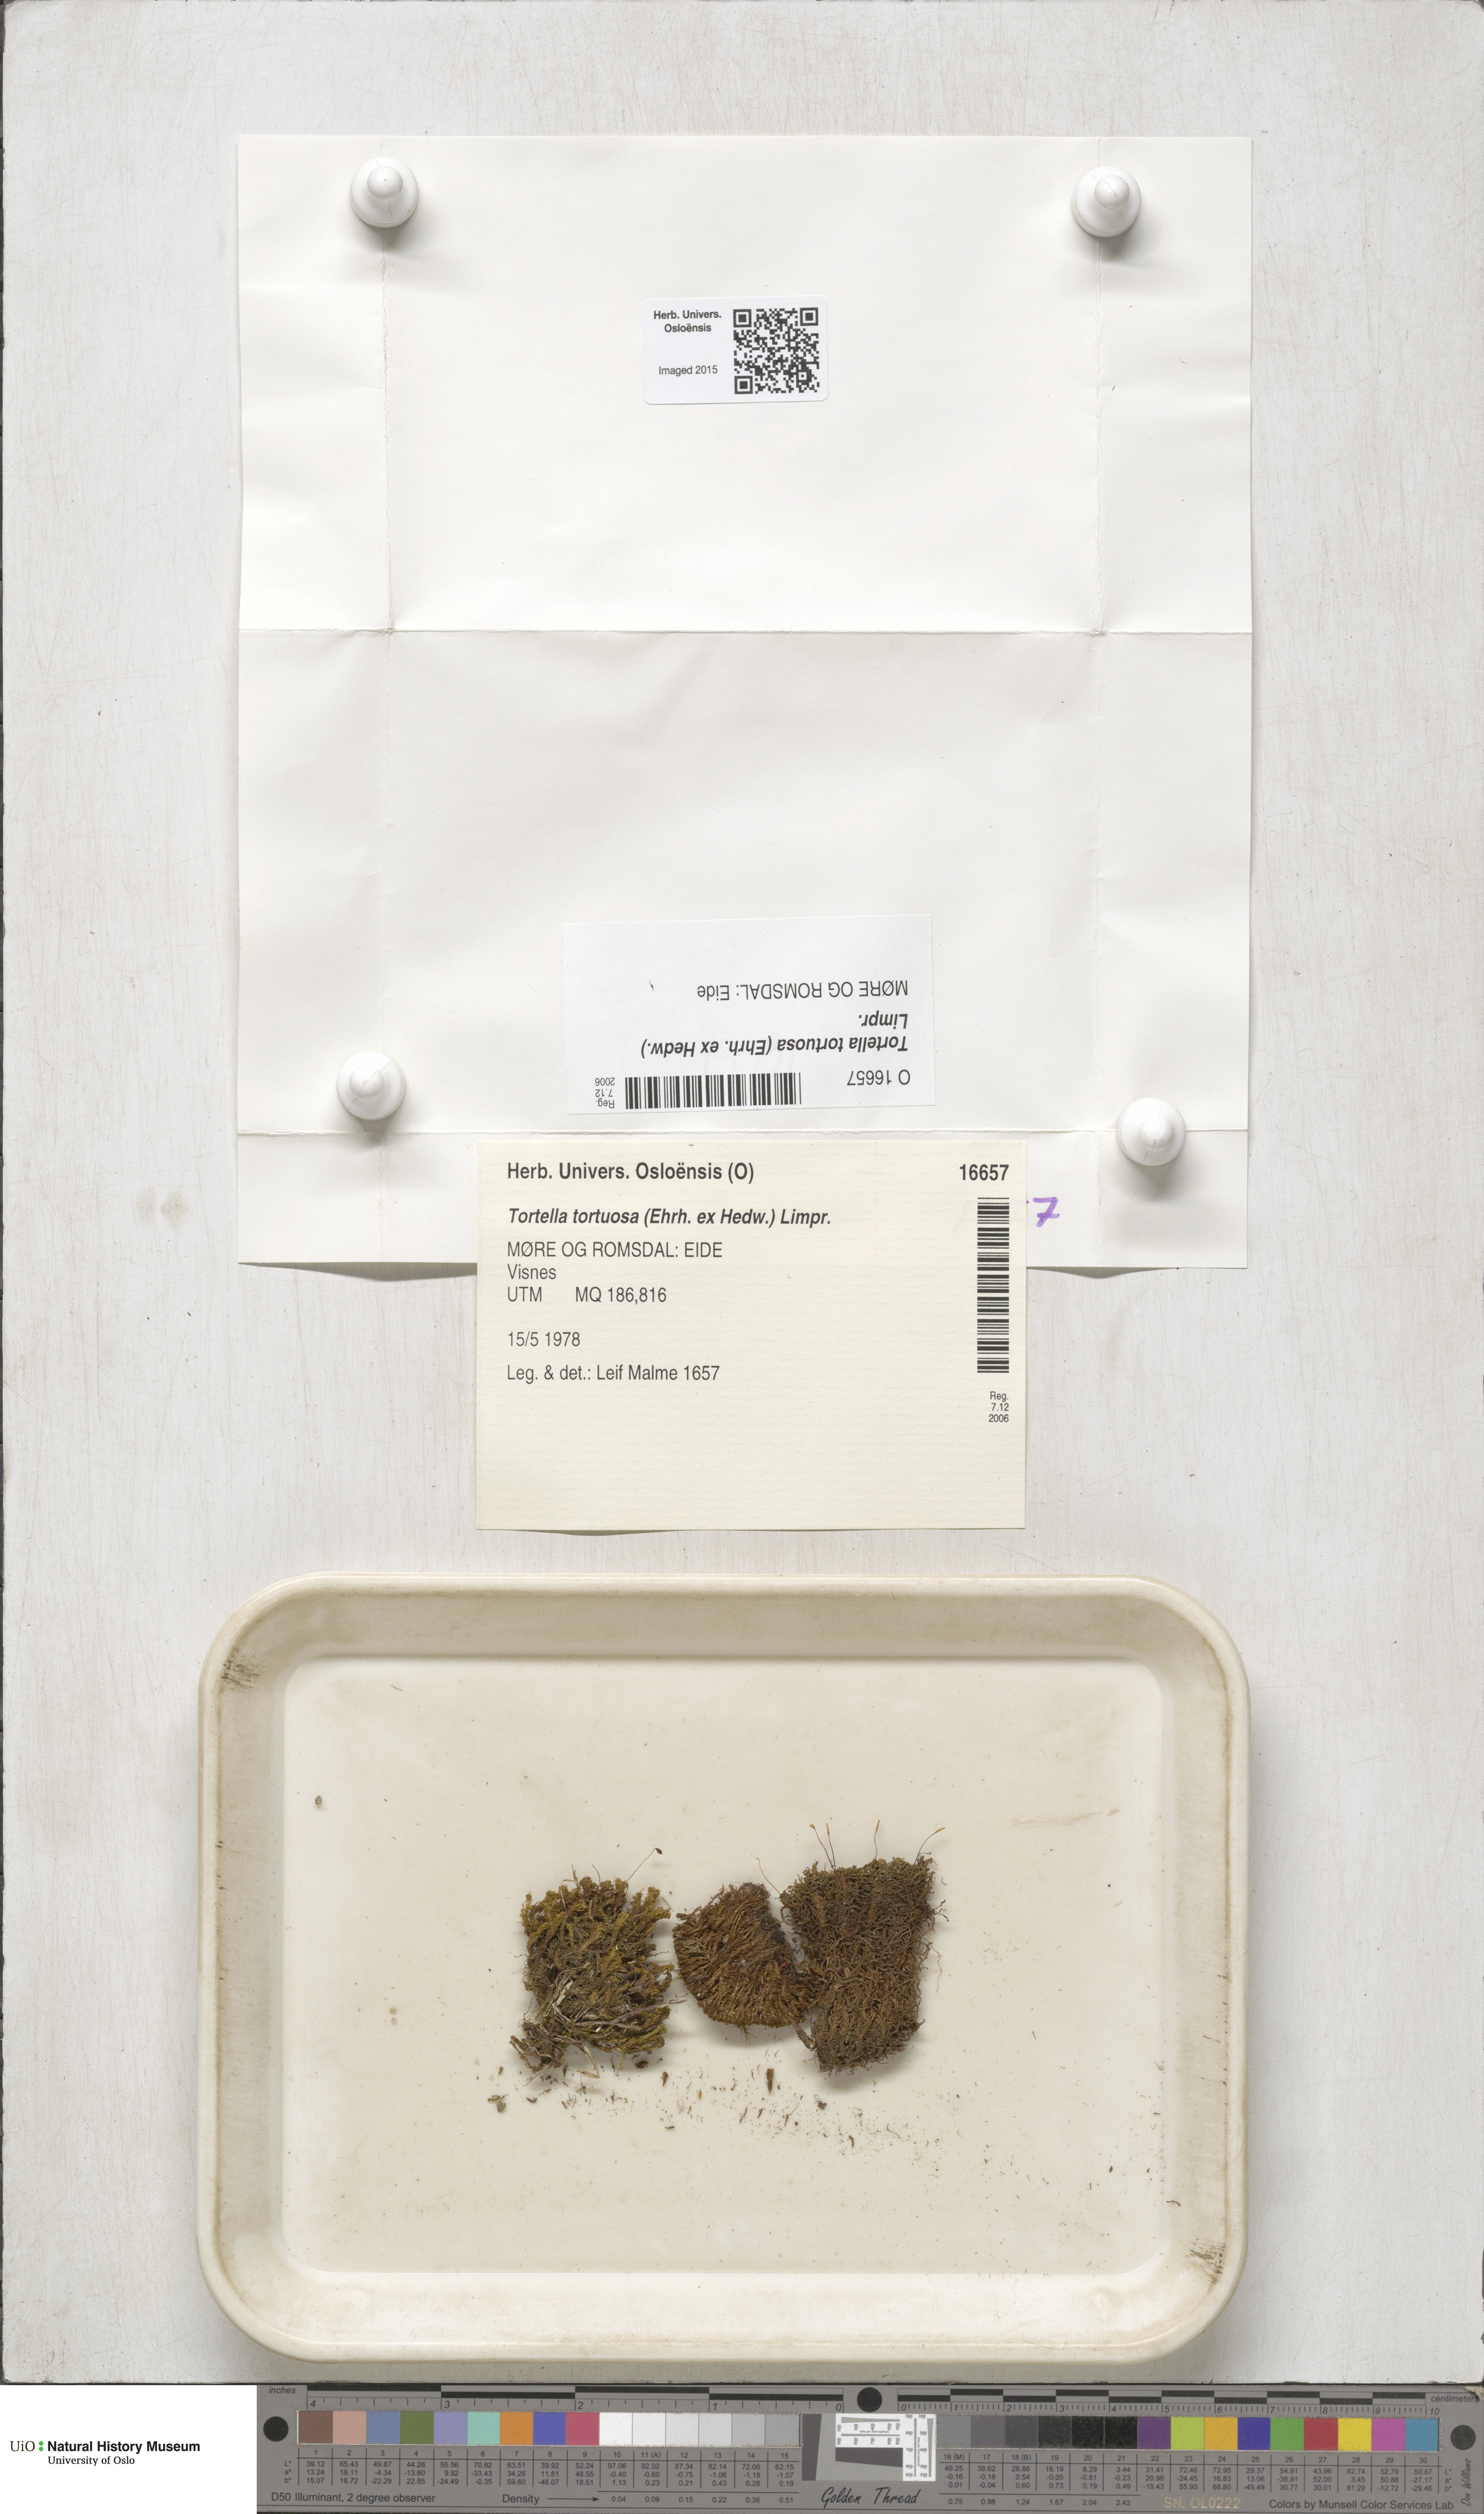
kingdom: Plantae
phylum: Bryophyta
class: Bryopsida
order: Pottiales
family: Pottiaceae
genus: Tortella
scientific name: Tortella tortuosa
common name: Frizzled crisp moss
